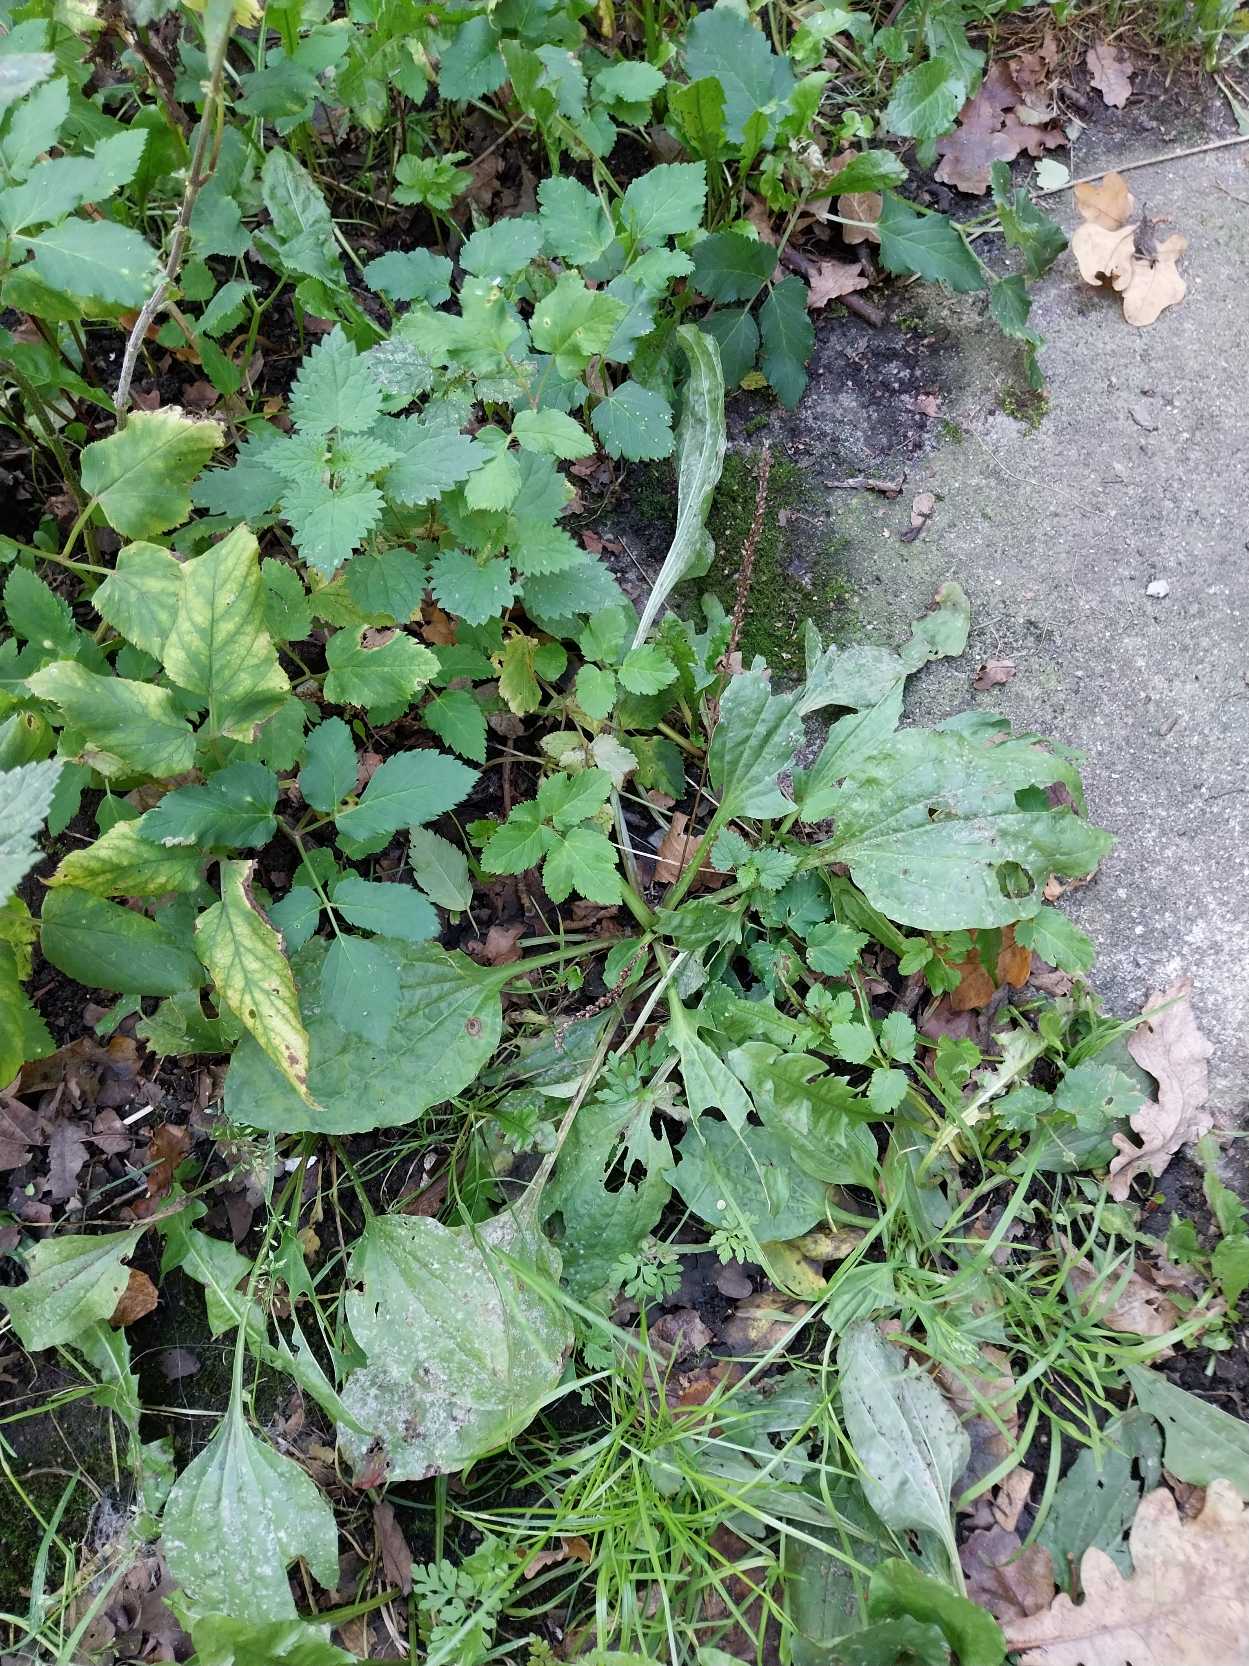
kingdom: Plantae
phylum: Tracheophyta
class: Magnoliopsida
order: Lamiales
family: Plantaginaceae
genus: Plantago
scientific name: Plantago major
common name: Glat vejbred
